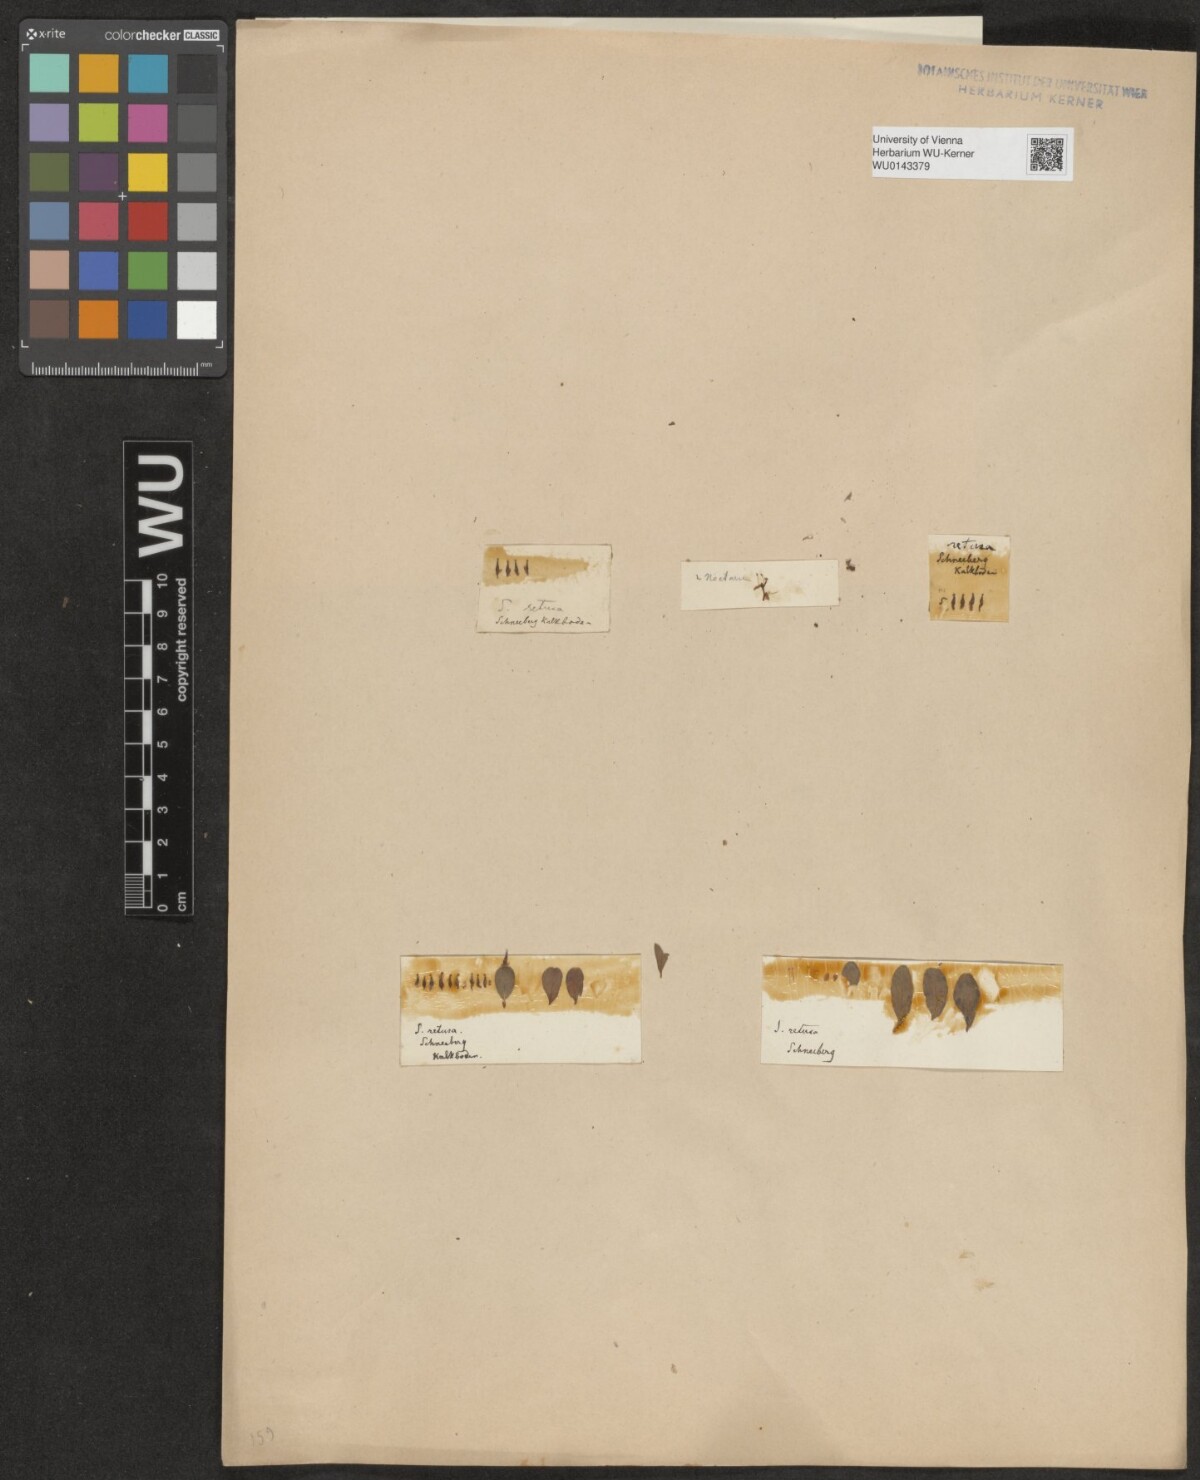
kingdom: Plantae
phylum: Tracheophyta
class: Magnoliopsida
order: Malpighiales
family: Salicaceae
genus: Salix
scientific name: Salix retusa
